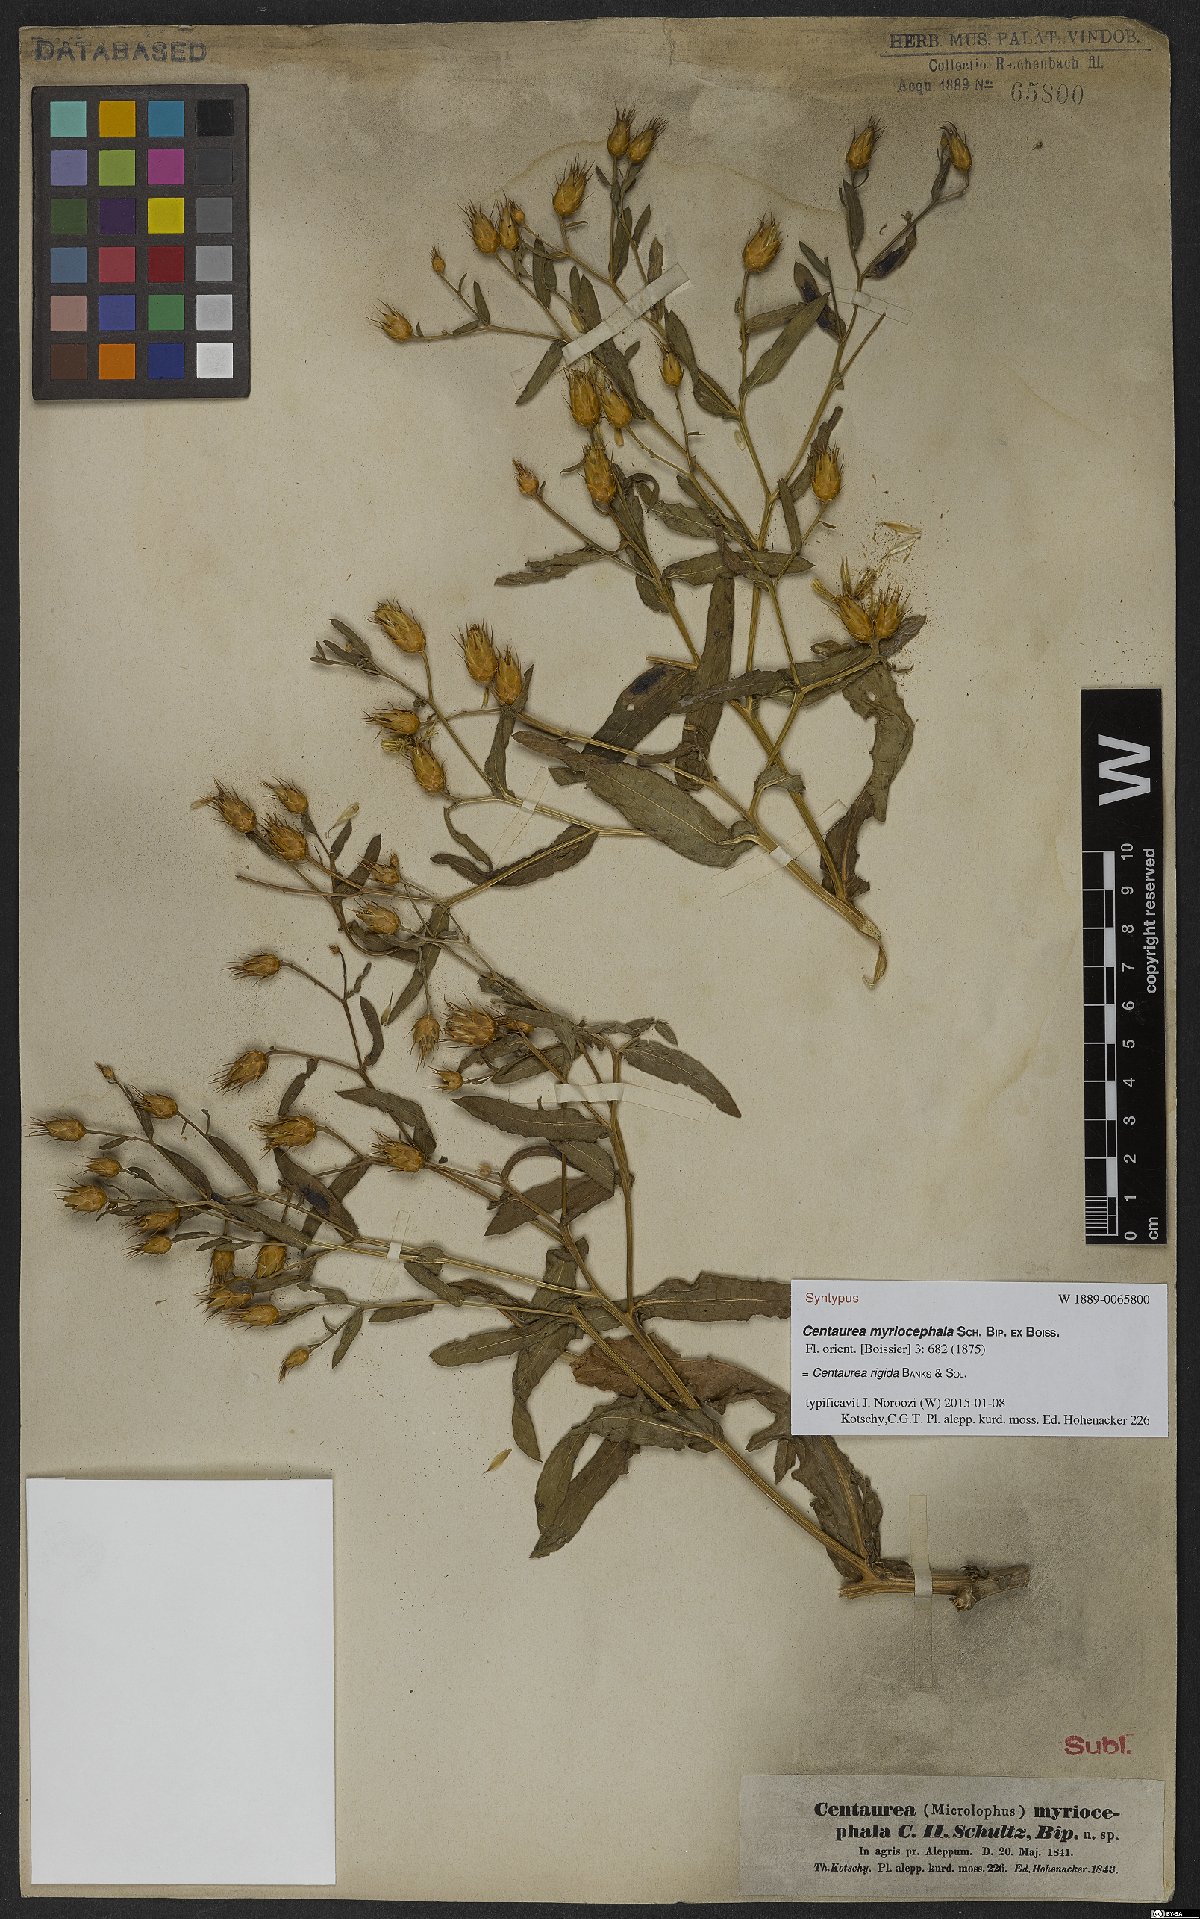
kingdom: Plantae
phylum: Tracheophyta
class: Magnoliopsida
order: Asterales
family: Asteraceae
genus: Centaurea
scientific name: Centaurea rigida
